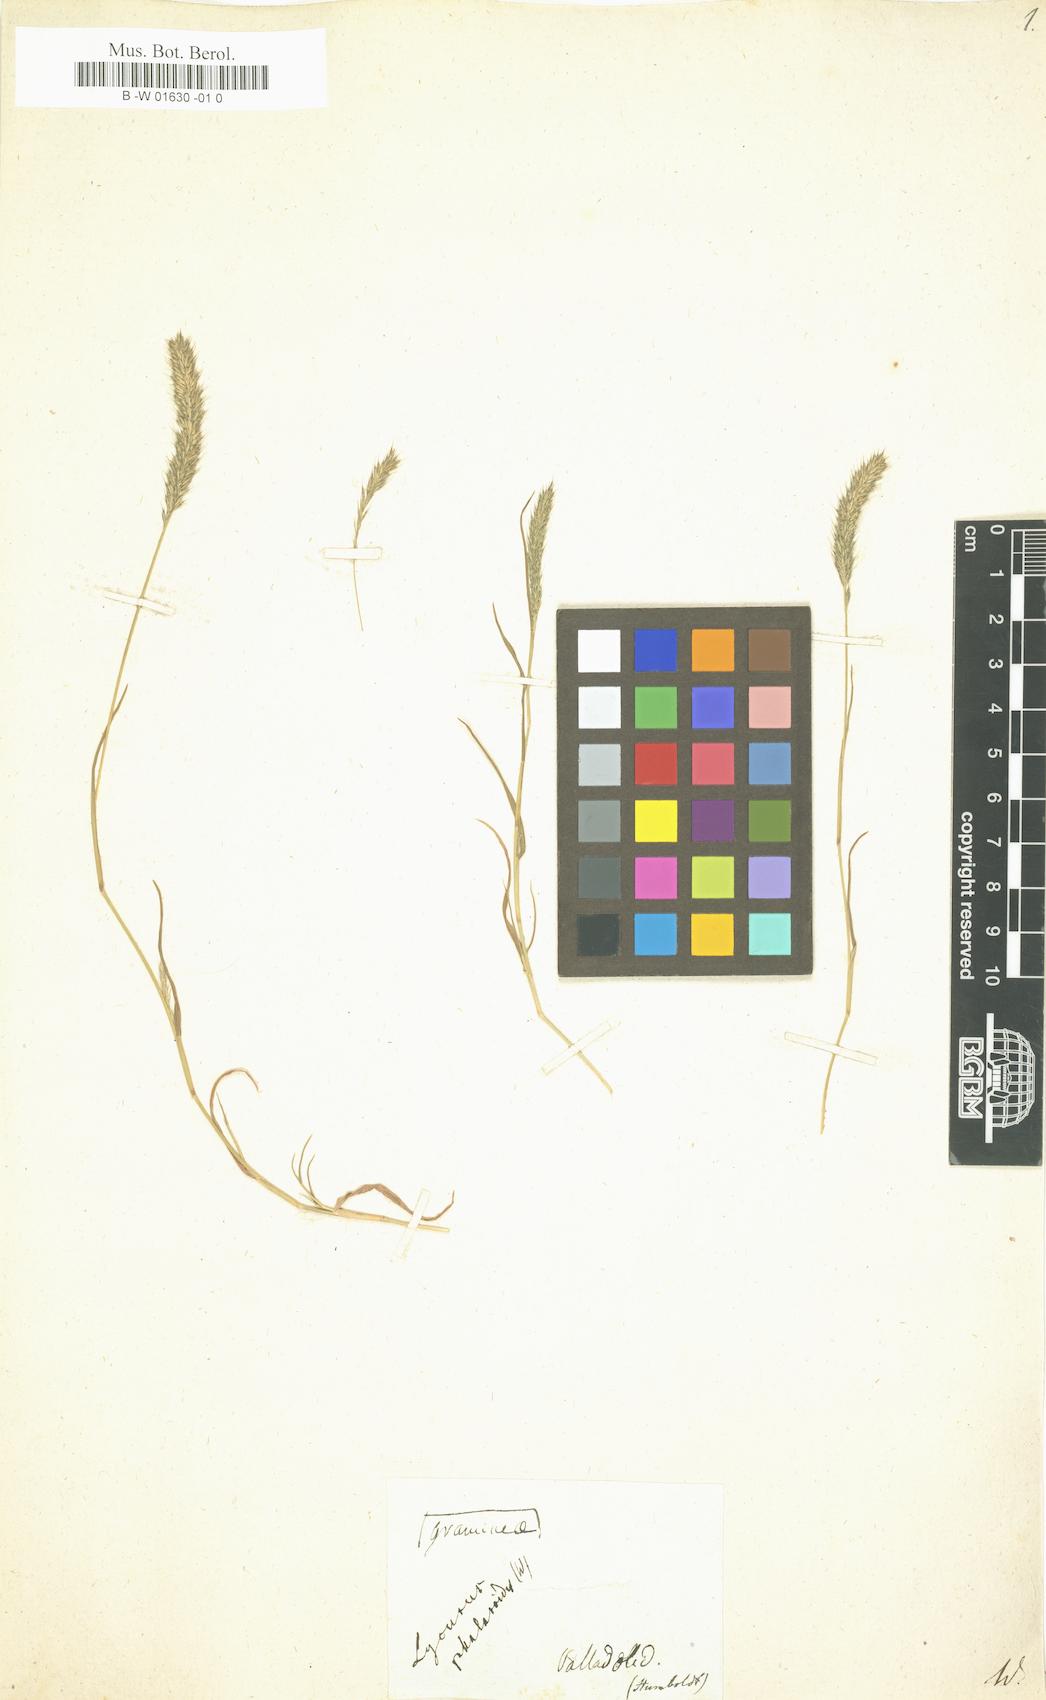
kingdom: Plantae
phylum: Tracheophyta
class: Liliopsida
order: Poales
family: Poaceae
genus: Muhlenbergia
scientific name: Muhlenbergia phalaroides
